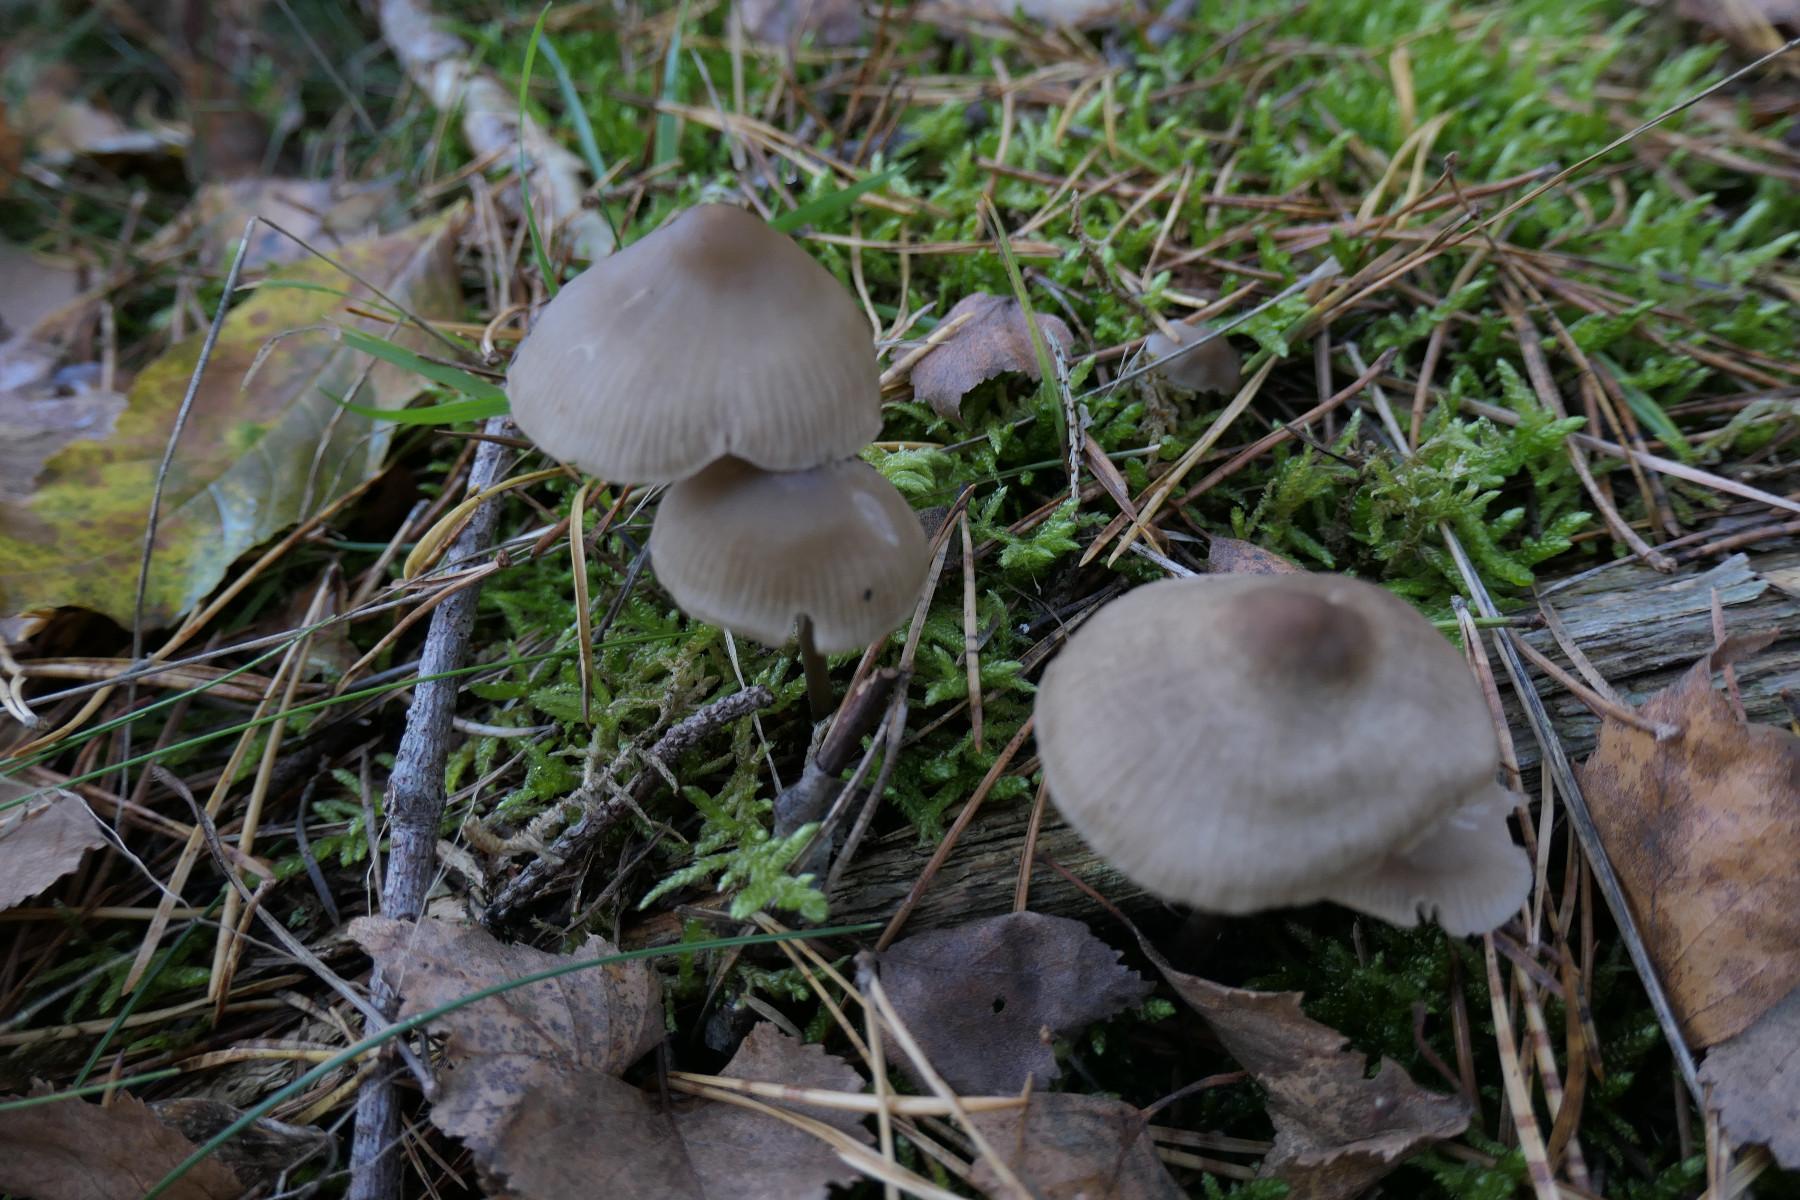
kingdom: Fungi
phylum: Basidiomycota
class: Agaricomycetes
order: Agaricales
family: Mycenaceae
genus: Mycena
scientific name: Mycena galericulata
